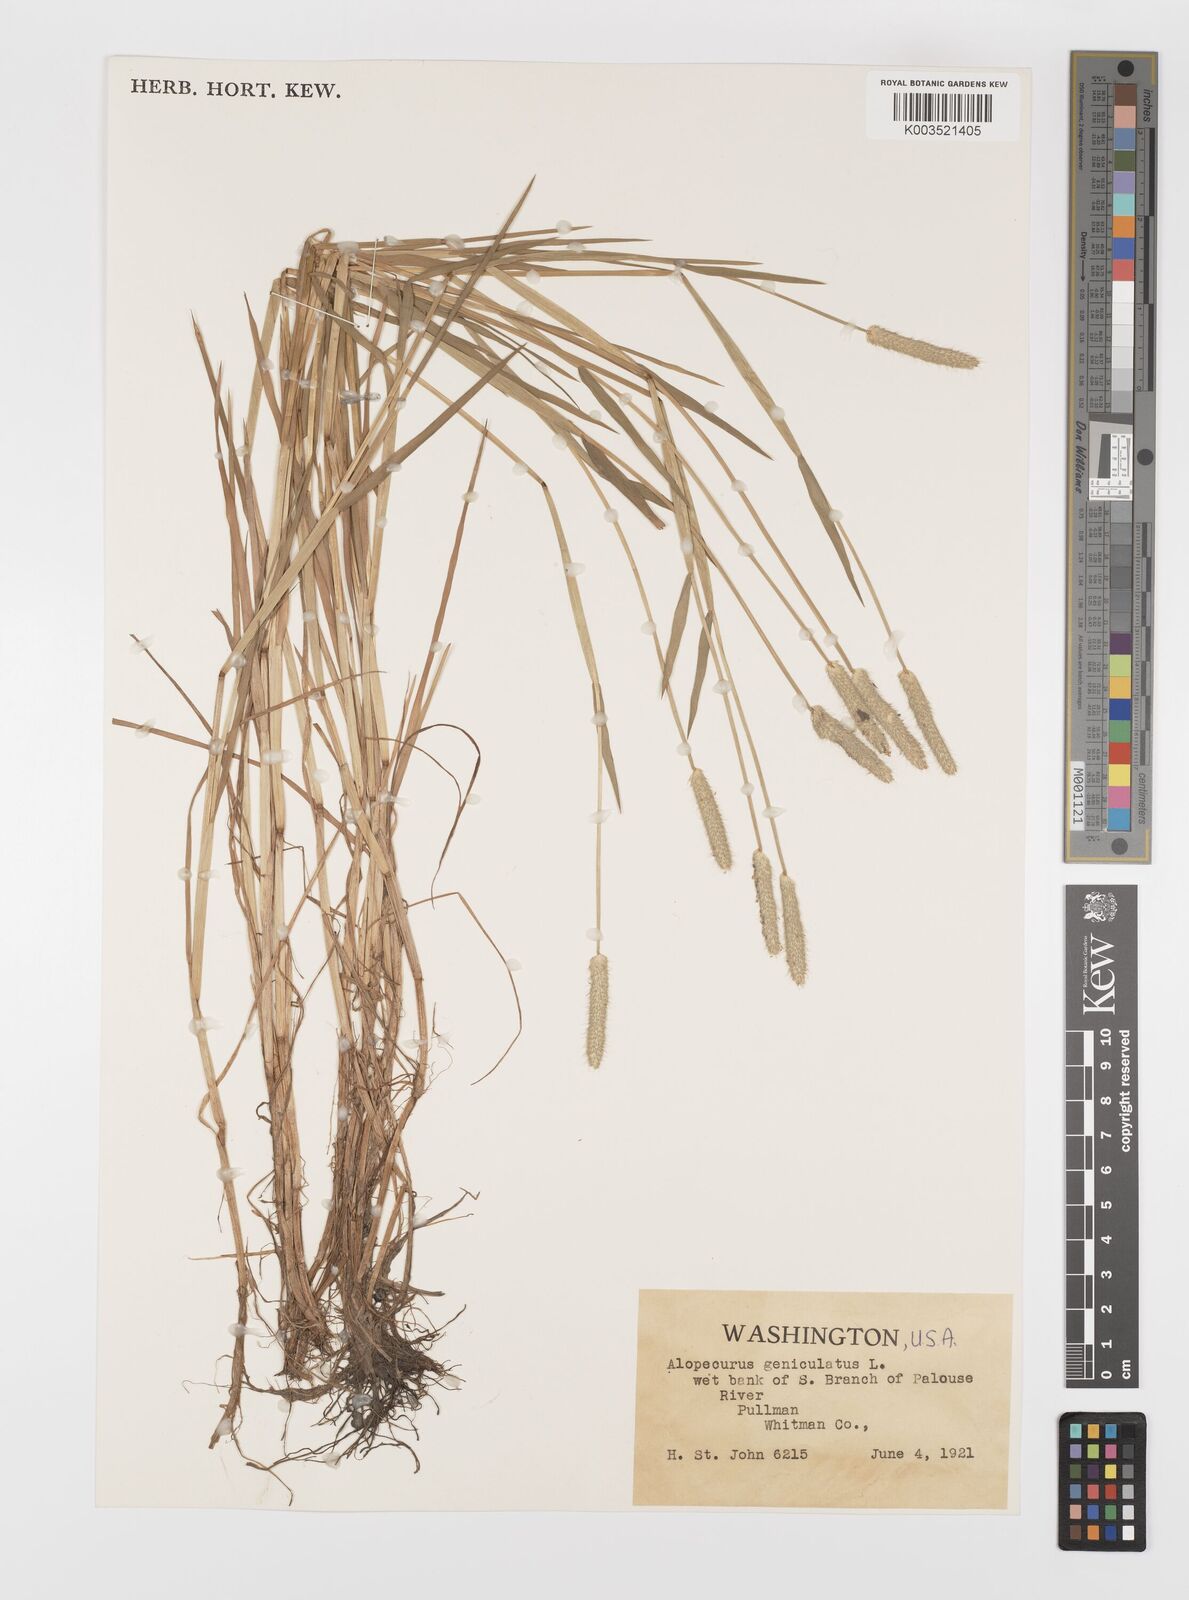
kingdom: Plantae
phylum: Tracheophyta
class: Liliopsida
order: Poales
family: Poaceae
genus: Alopecurus
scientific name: Alopecurus geniculatus
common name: Water foxtail
